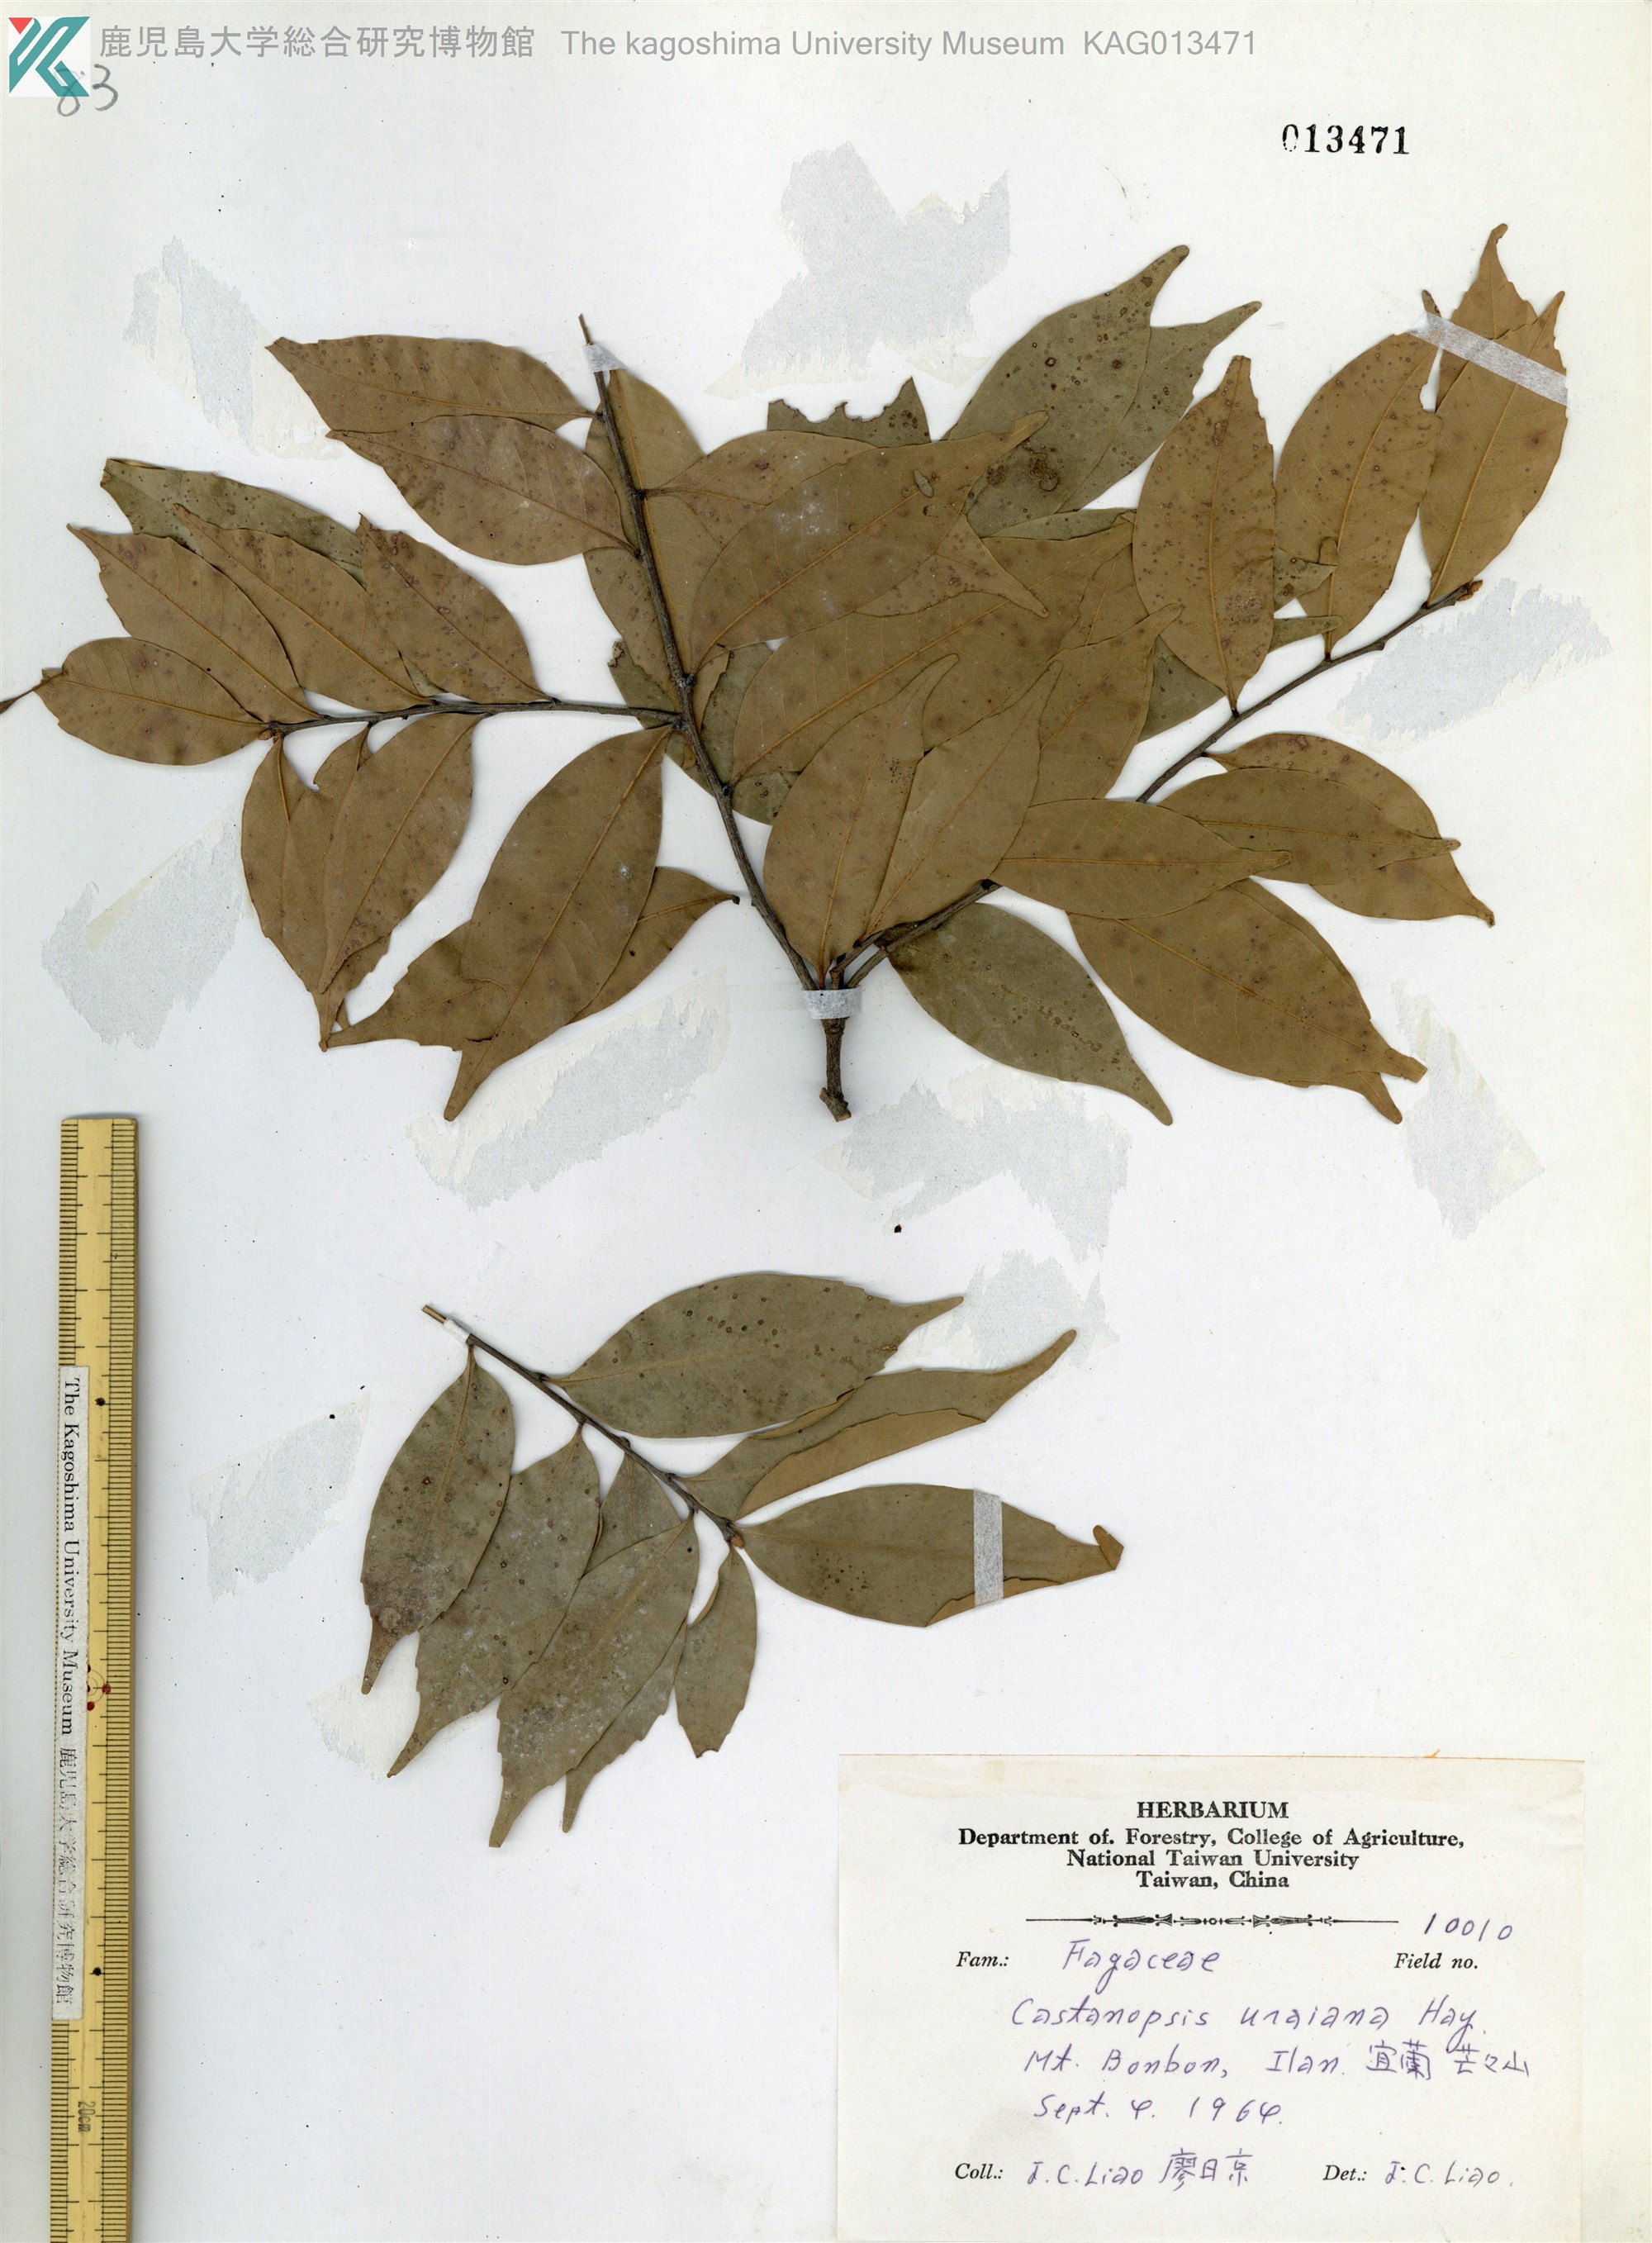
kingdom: Plantae
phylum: Tracheophyta
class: Magnoliopsida
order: Fagales
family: Fagaceae
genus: Lithocarpus
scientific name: Lithocarpus uraianus
